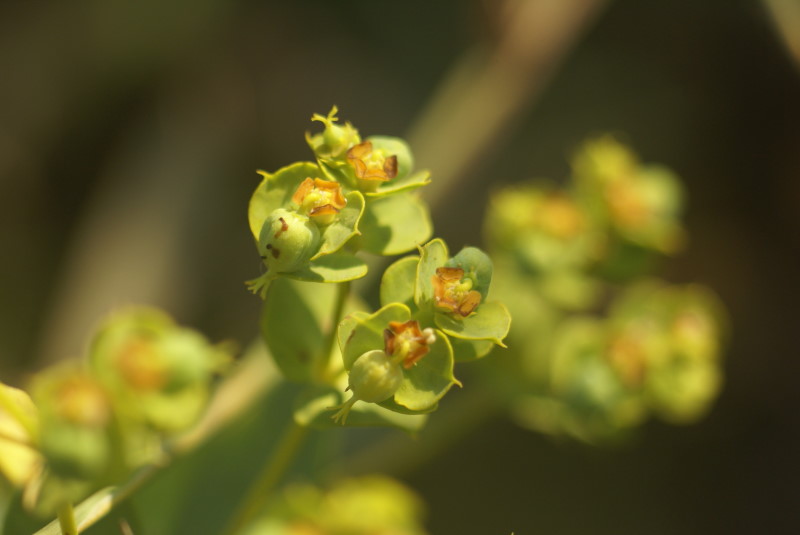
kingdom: Plantae
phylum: Tracheophyta
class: Magnoliopsida
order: Malpighiales
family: Euphorbiaceae
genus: Euphorbia
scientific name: Euphorbia stepposa
